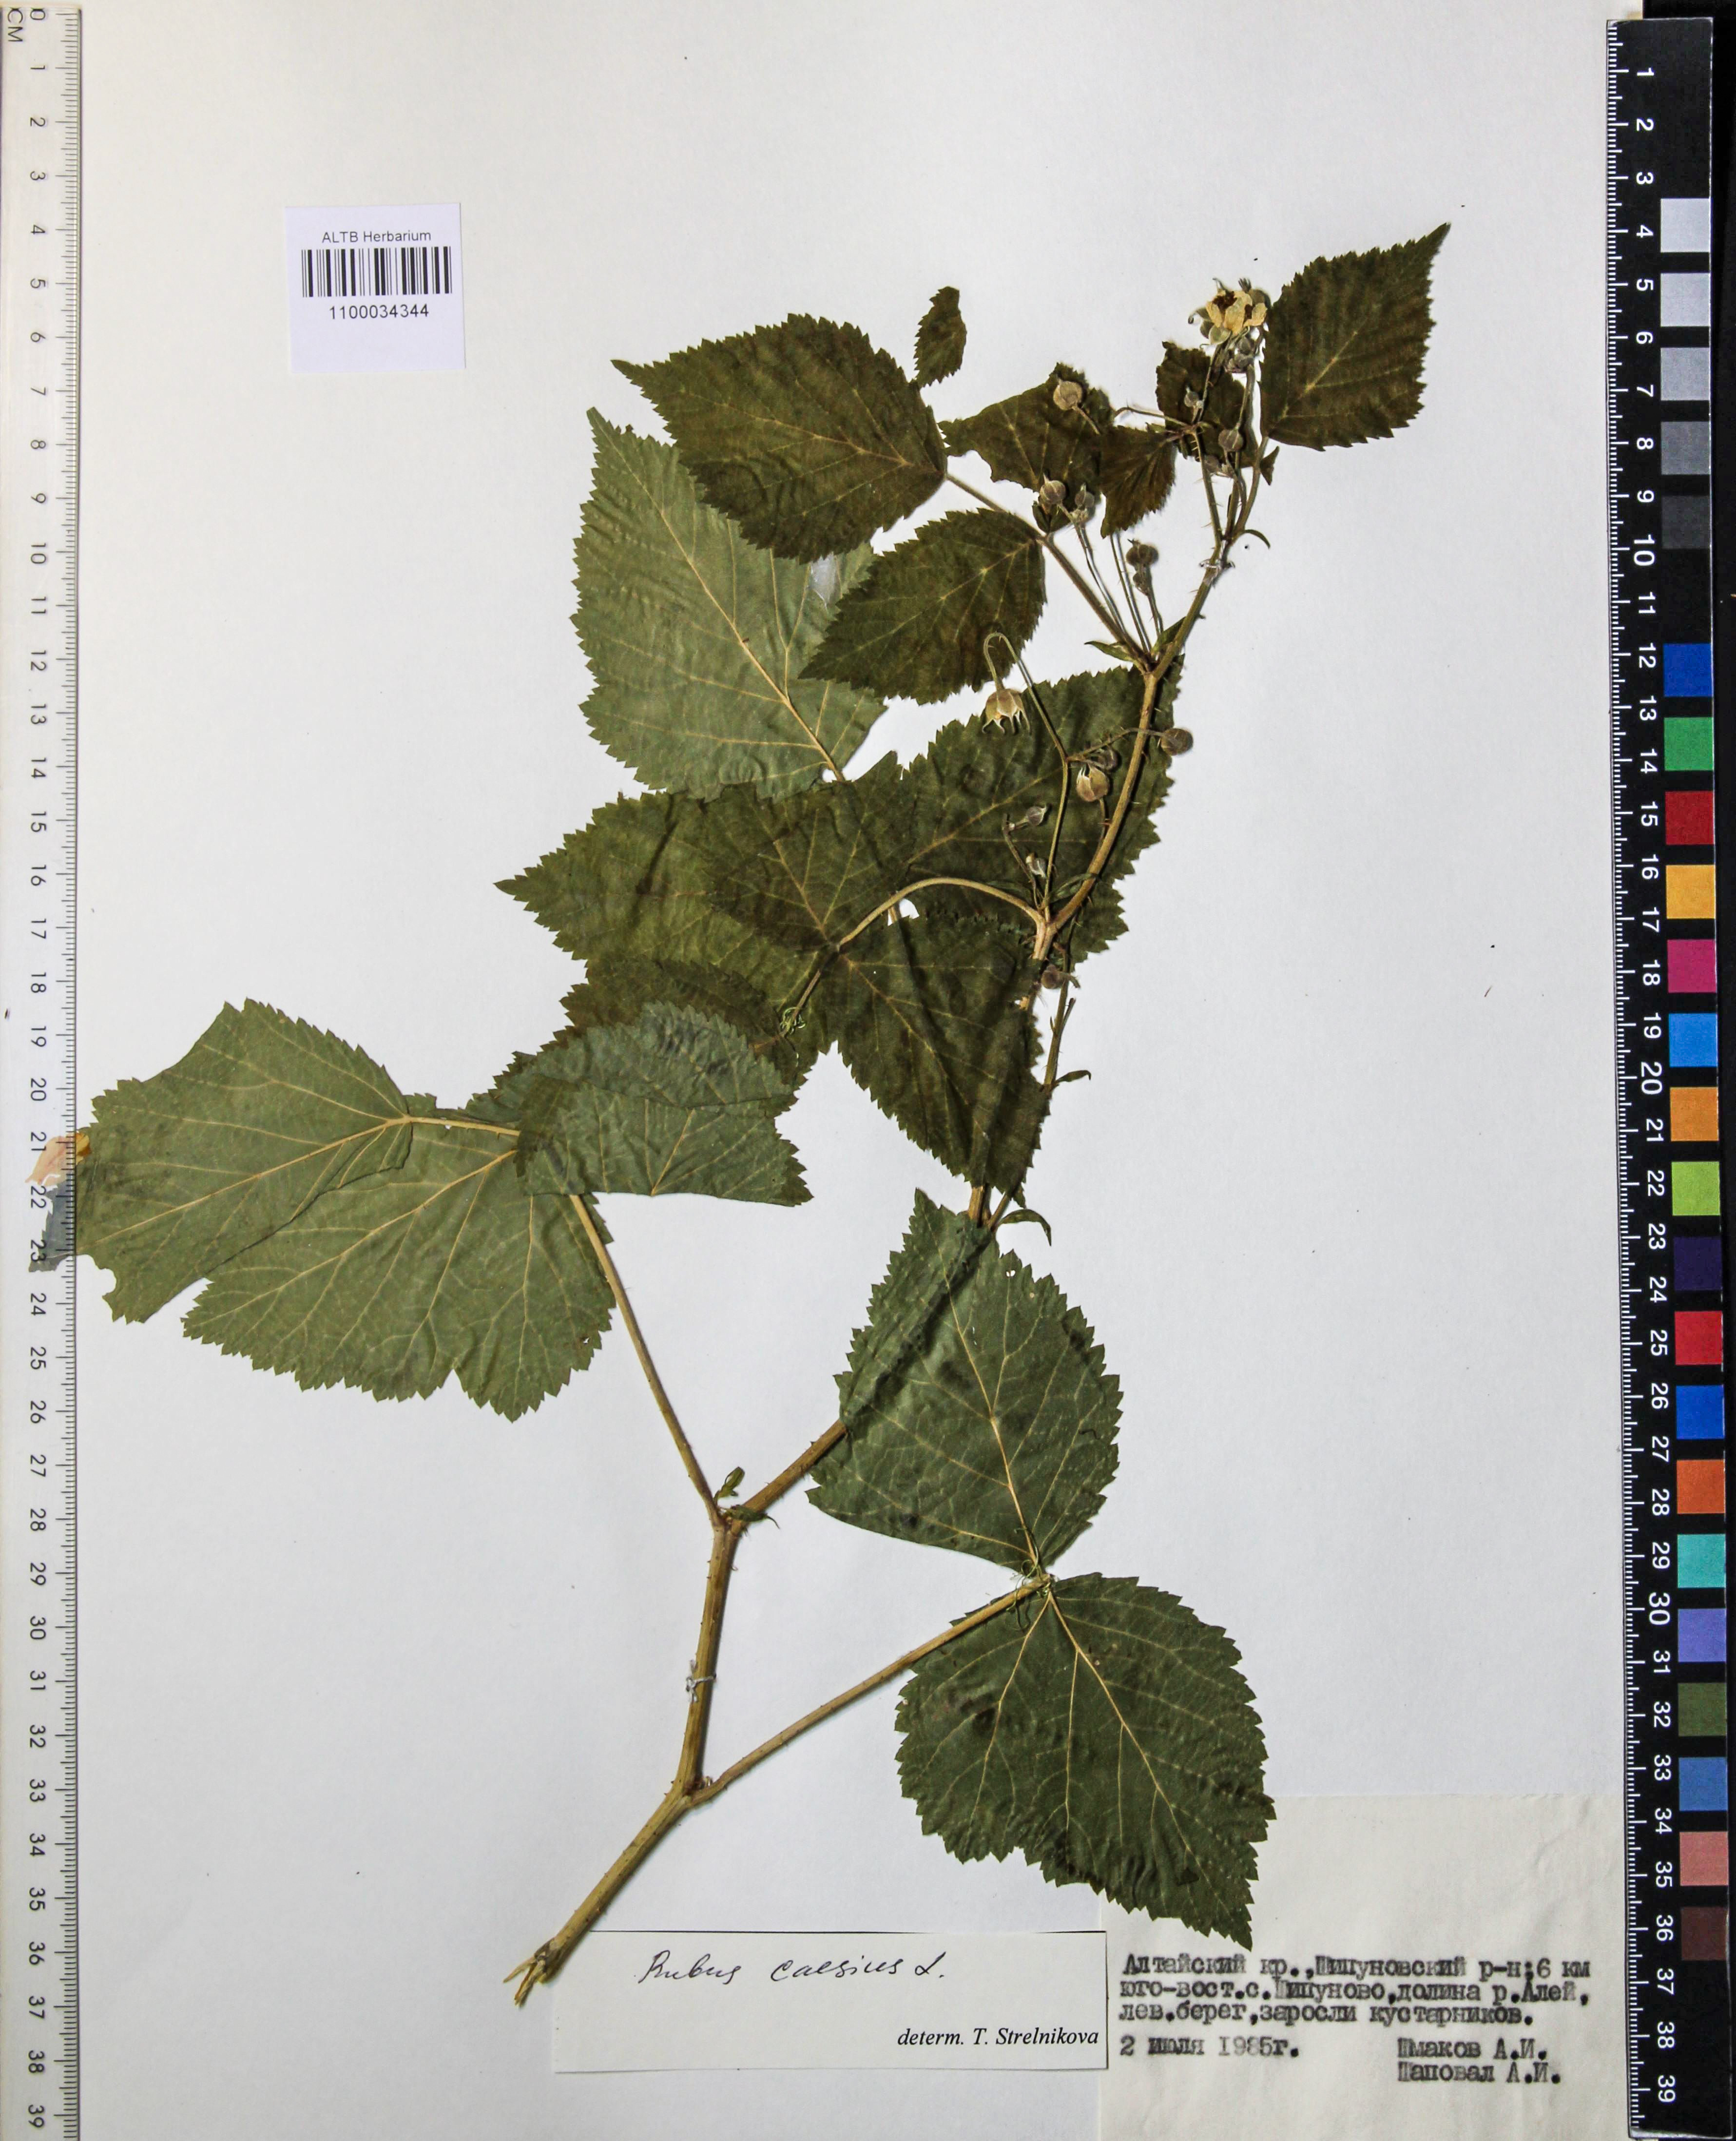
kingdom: Plantae
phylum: Tracheophyta
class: Magnoliopsida
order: Rosales
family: Rosaceae
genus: Rubus
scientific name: Rubus caesius
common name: Dewberry
